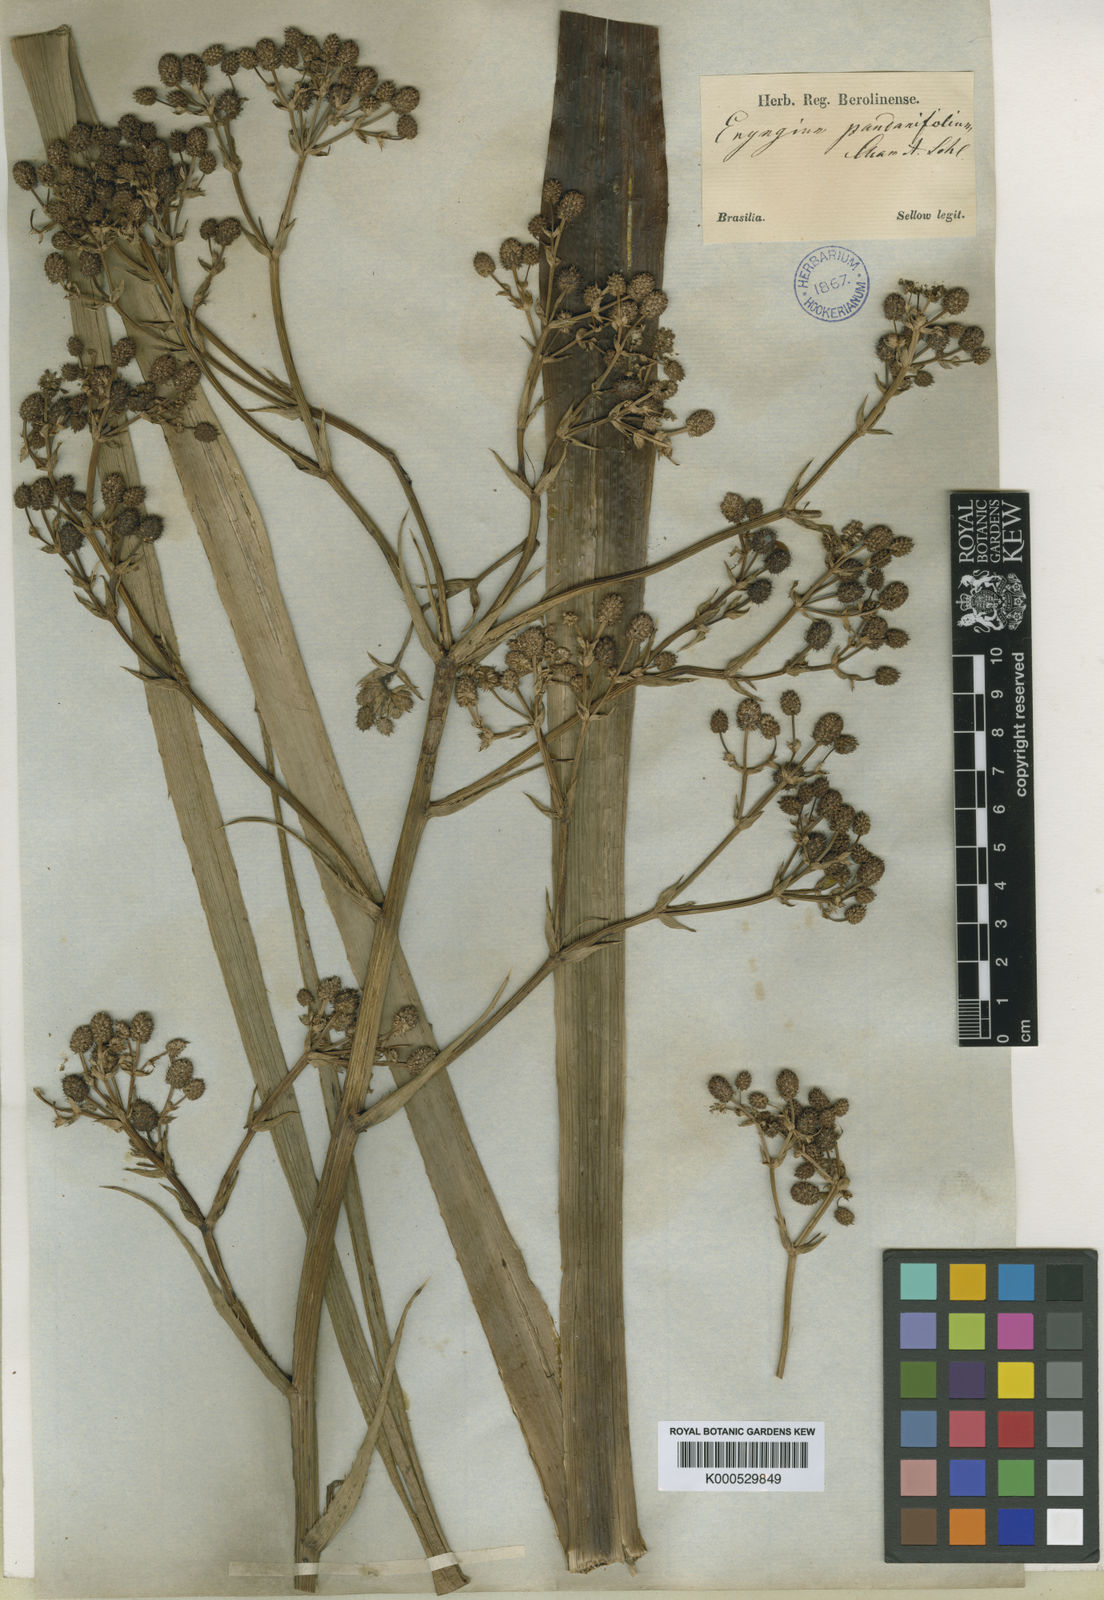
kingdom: Plantae
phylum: Tracheophyta
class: Magnoliopsida
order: Apiales
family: Apiaceae
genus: Eryngium
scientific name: Eryngium pandanifolium
